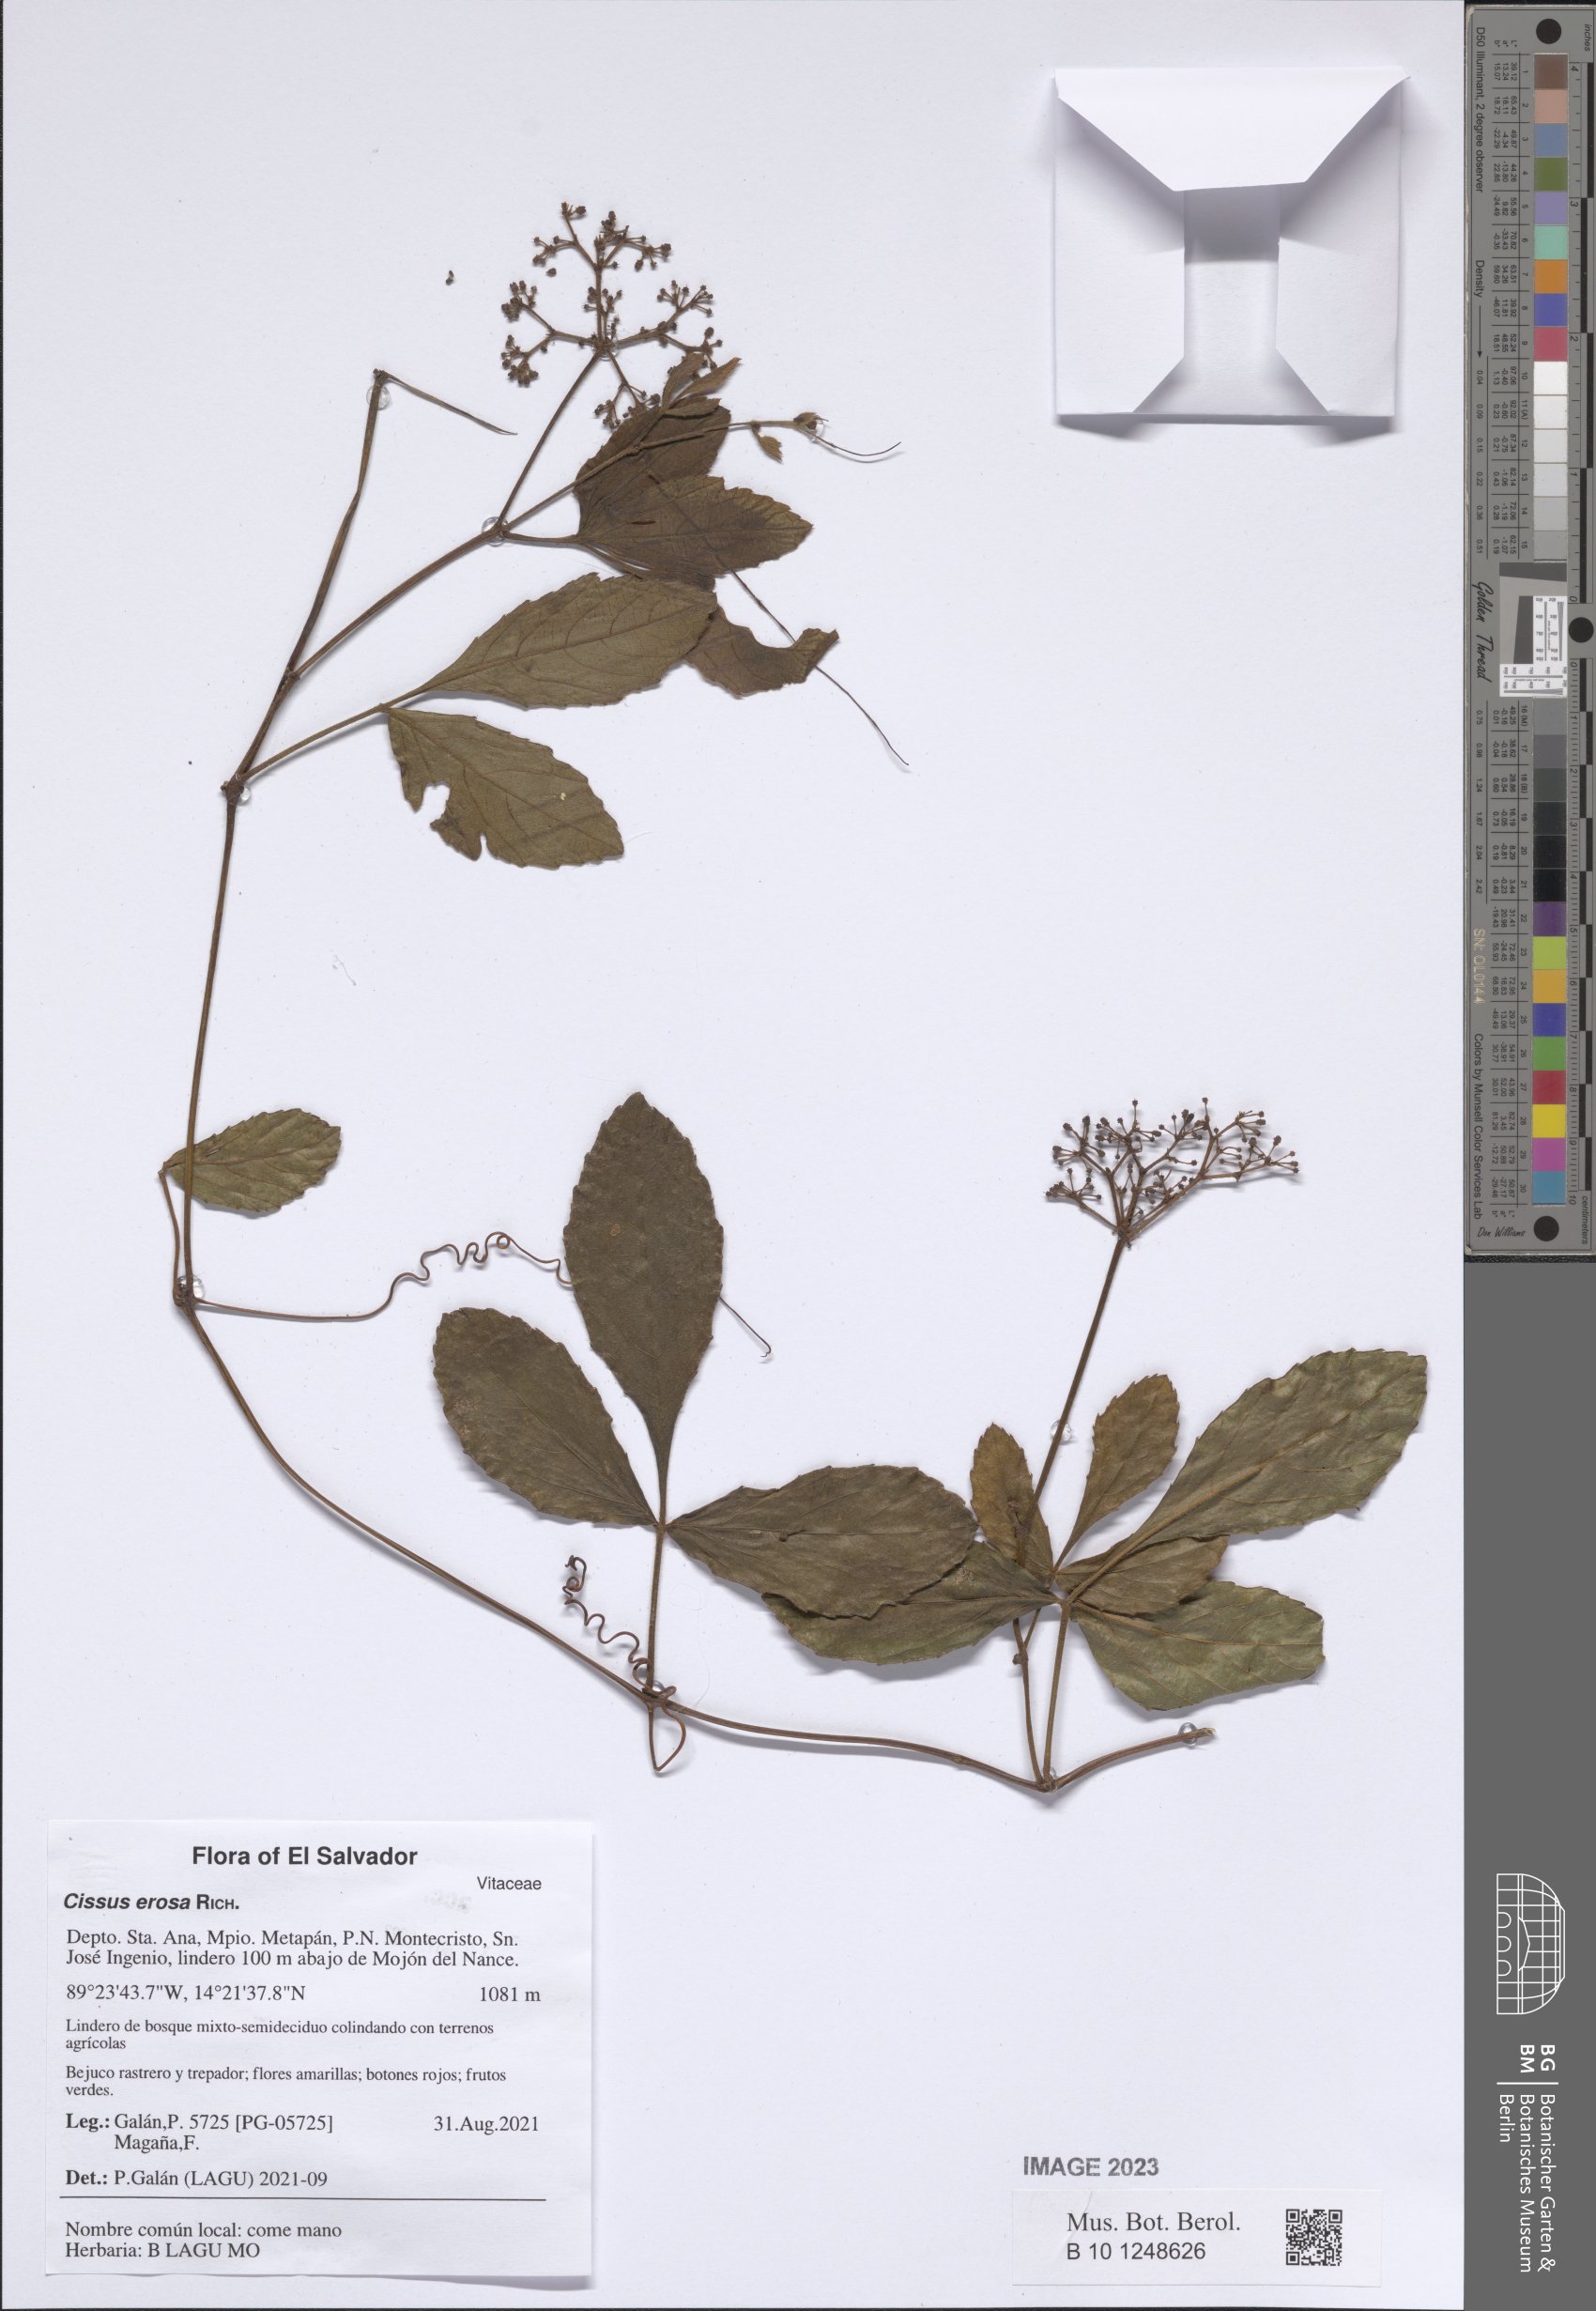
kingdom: Plantae
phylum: Tracheophyta
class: Magnoliopsida
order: Vitales
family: Vitaceae
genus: Cissus
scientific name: Cissus erosa
